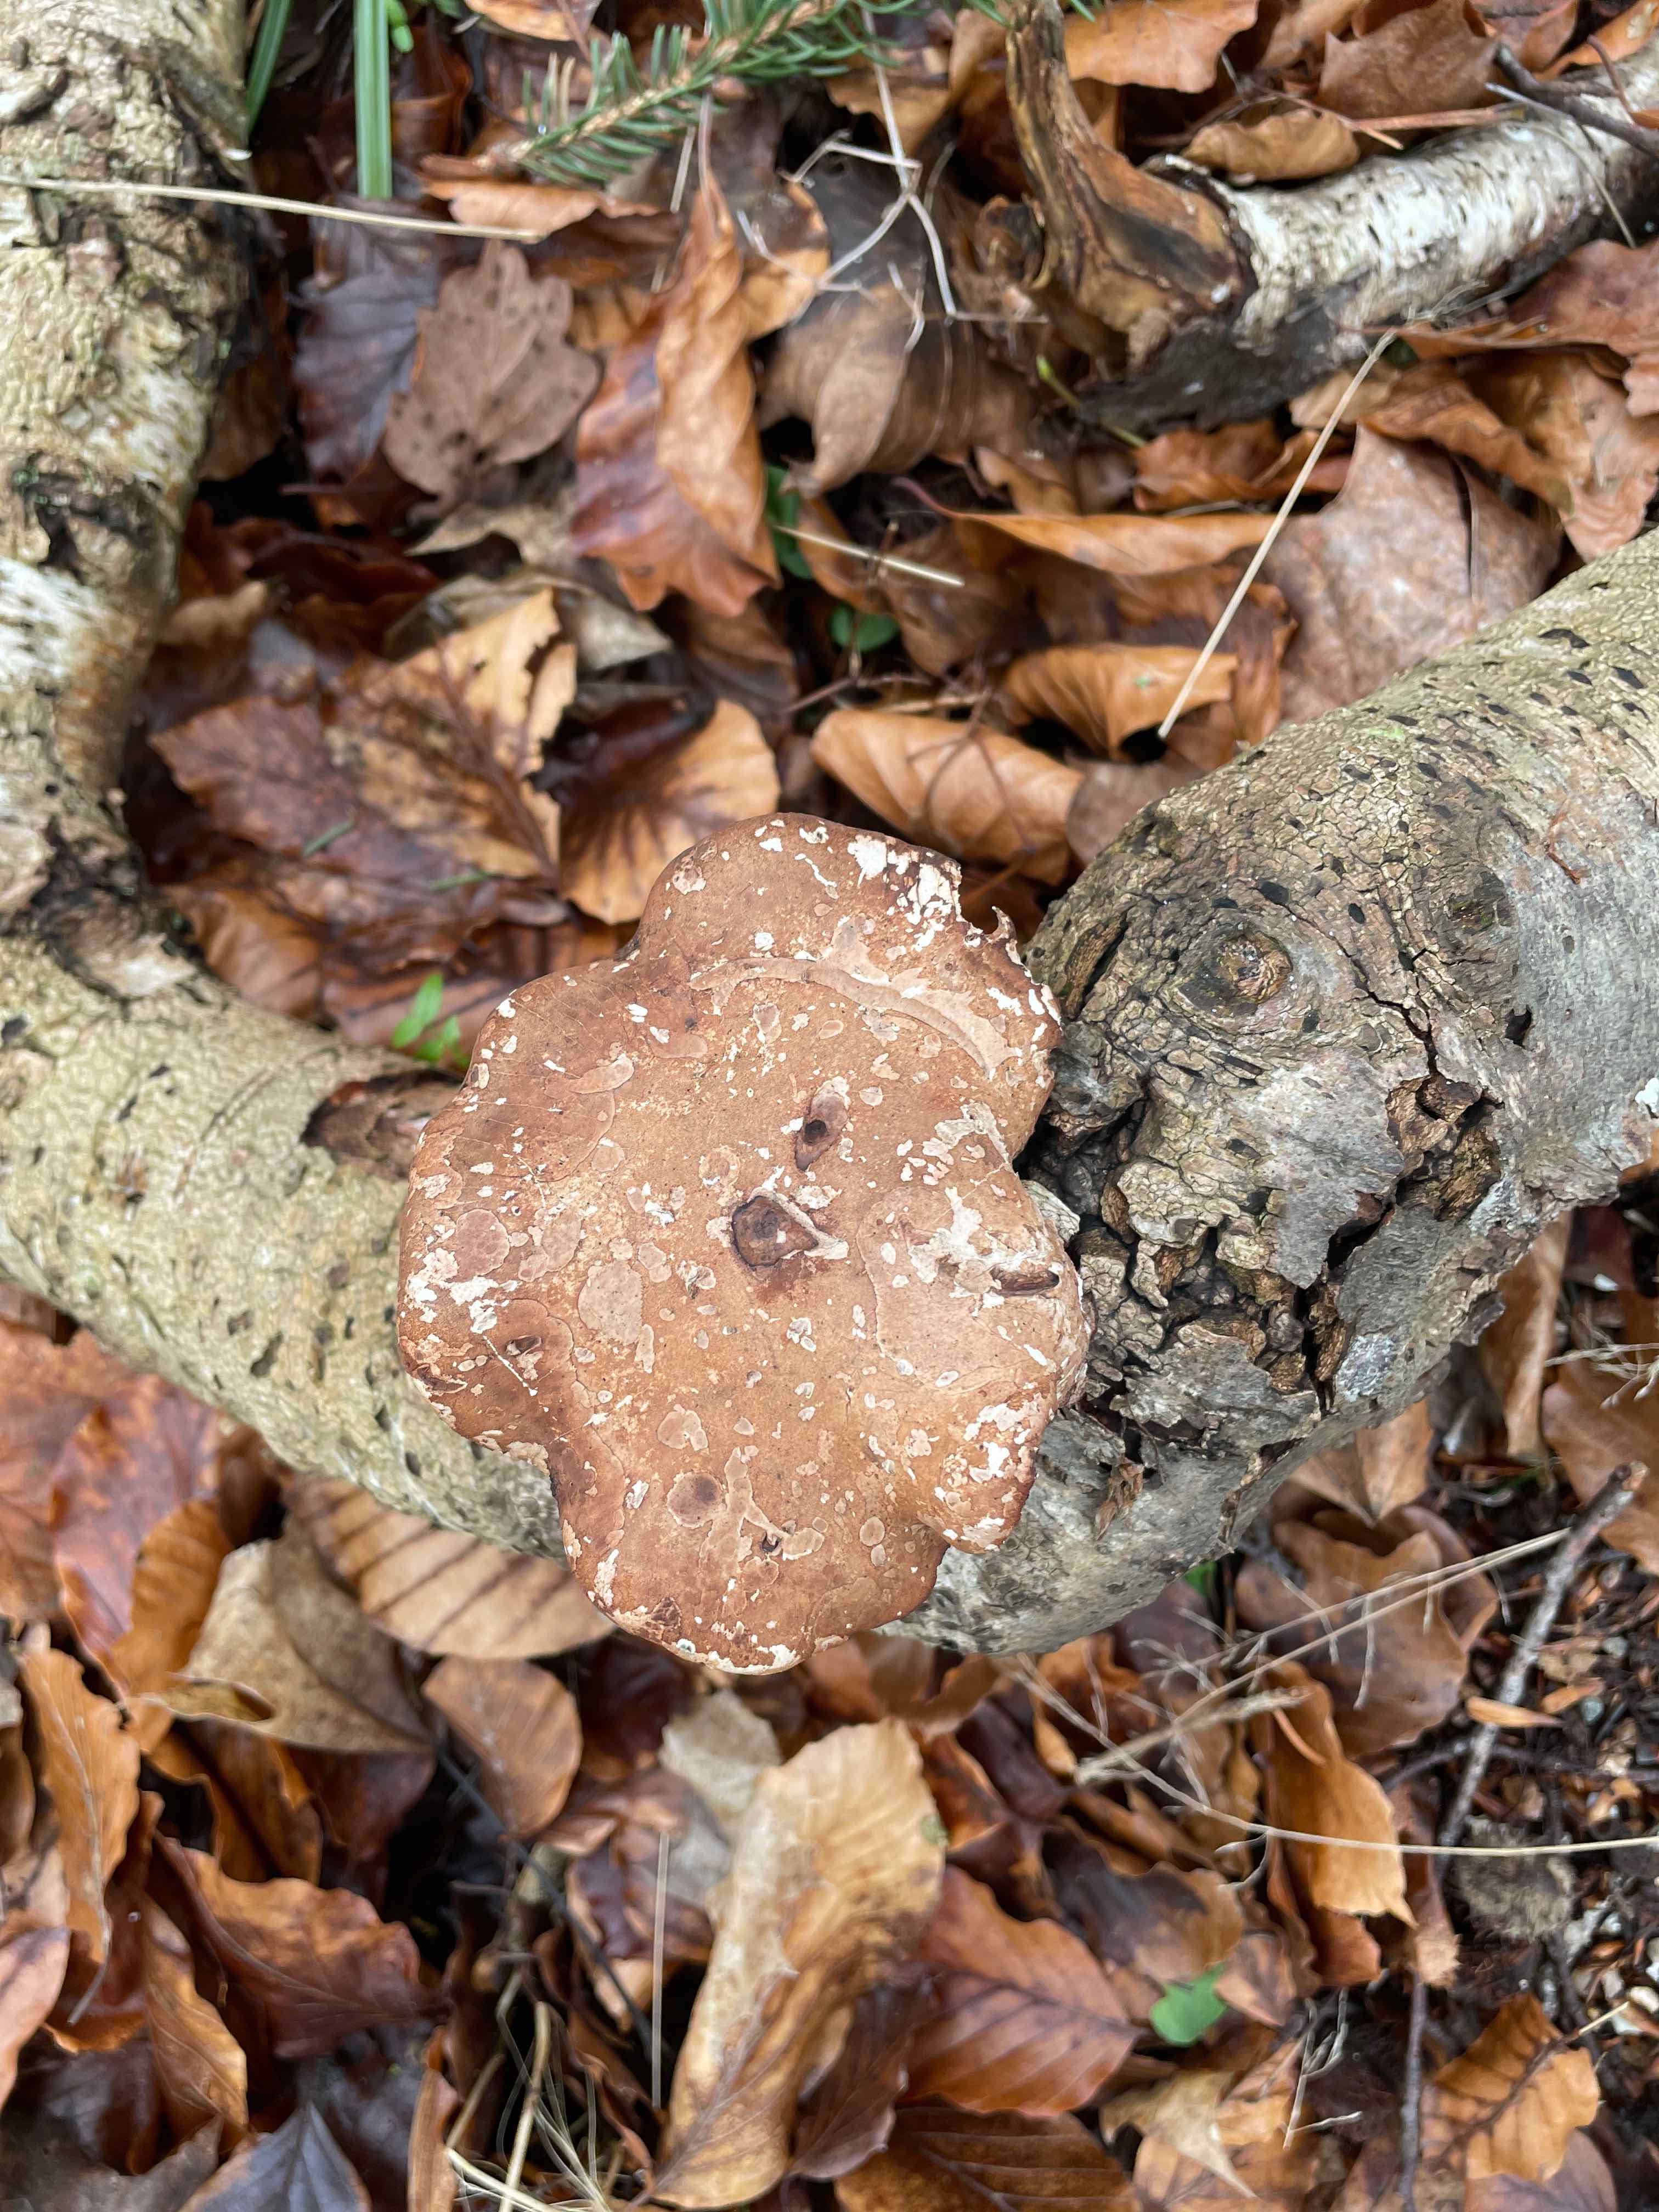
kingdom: Fungi
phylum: Basidiomycota
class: Agaricomycetes
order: Polyporales
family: Fomitopsidaceae
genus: Fomitopsis
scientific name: Fomitopsis betulina
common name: birkeporesvamp
